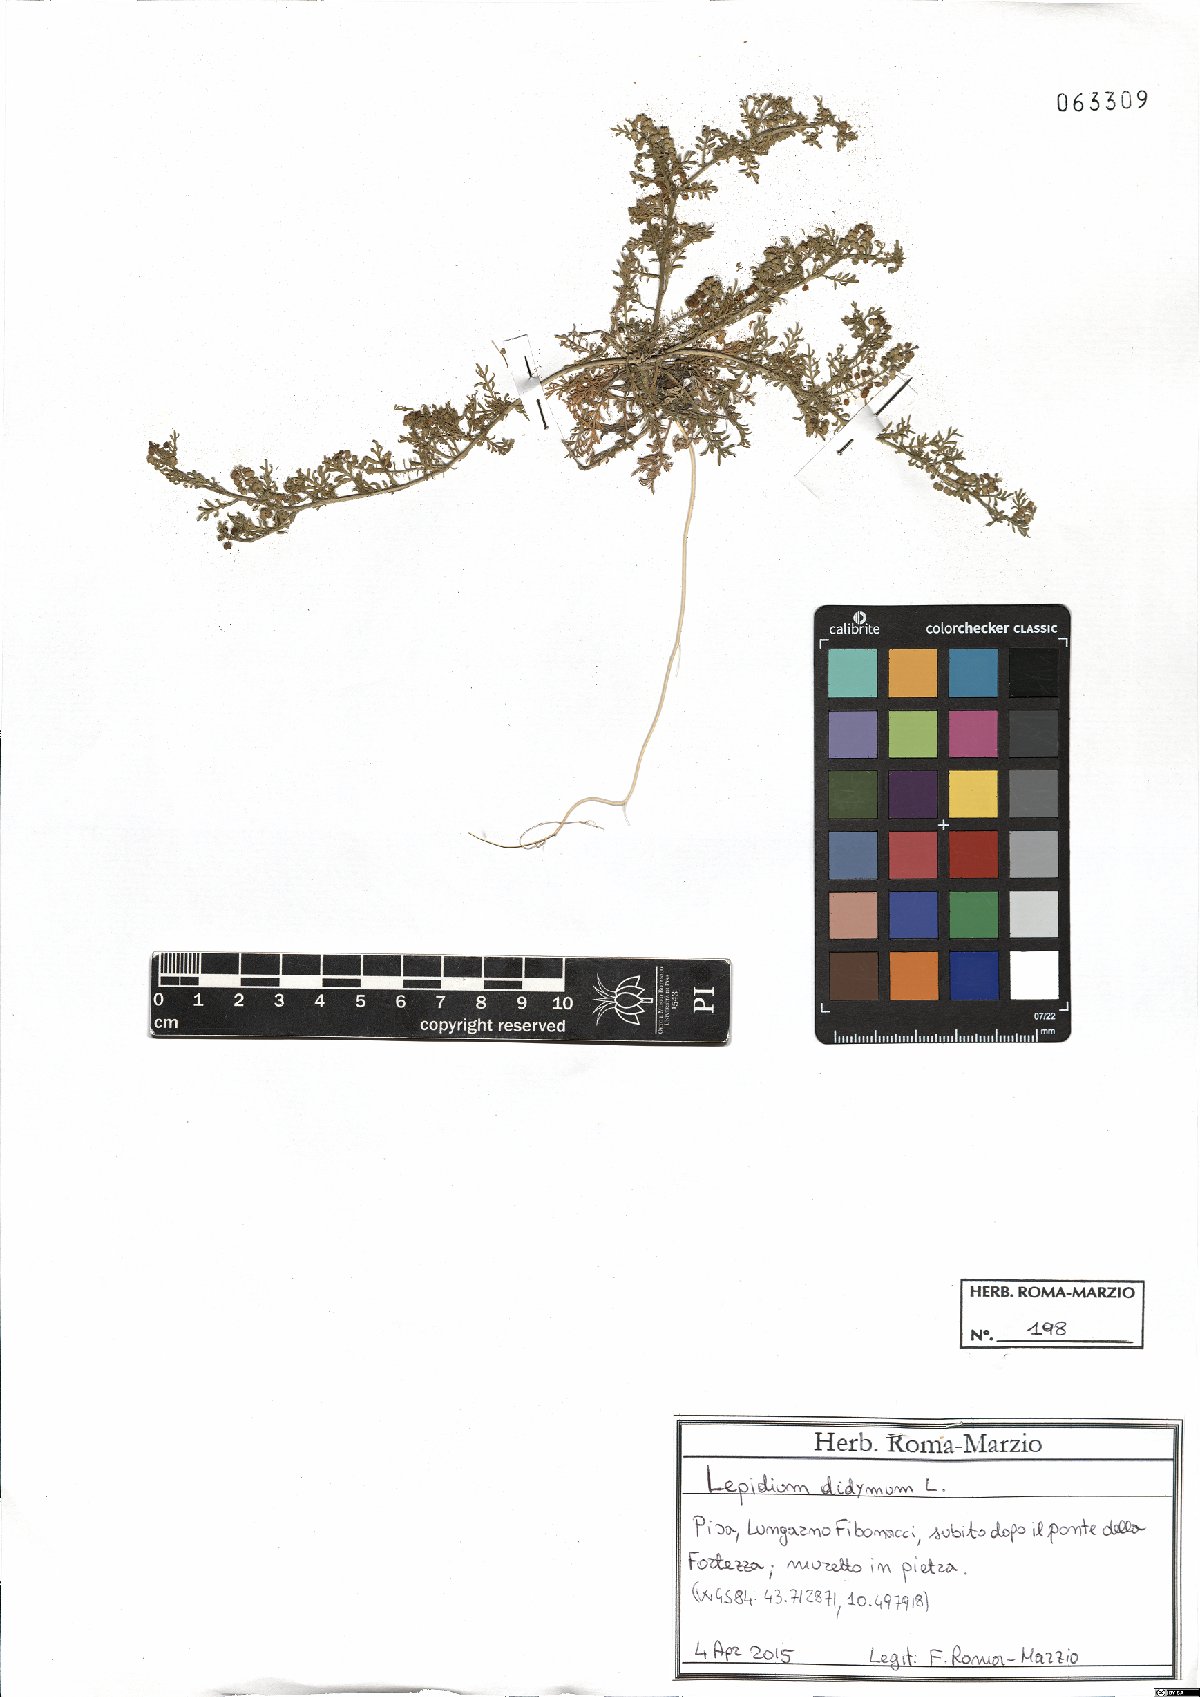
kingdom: Plantae
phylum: Tracheophyta
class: Magnoliopsida
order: Brassicales
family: Brassicaceae
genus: Lepidium
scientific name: Lepidium didymum
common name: Lesser swinecress
